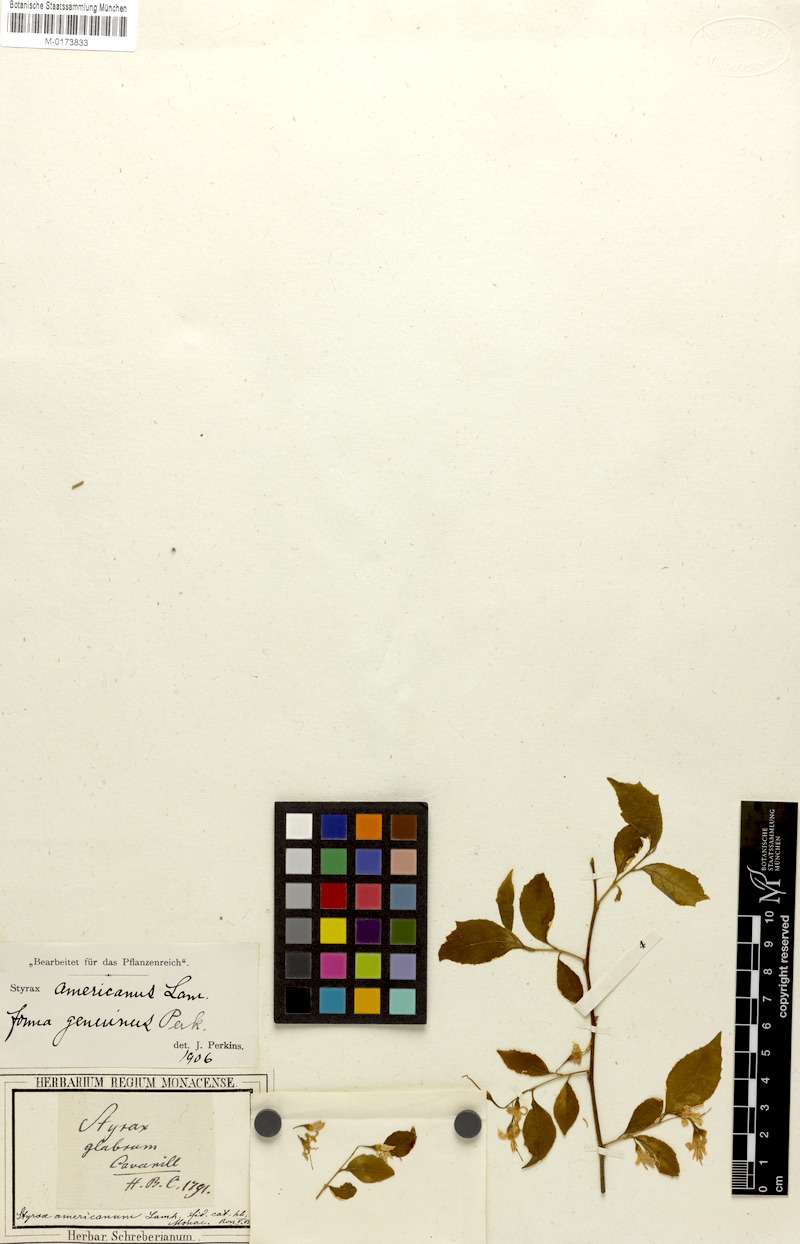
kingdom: Plantae
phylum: Tracheophyta
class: Magnoliopsida
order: Ericales
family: Styracaceae
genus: Styrax
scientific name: Styrax americanus
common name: American snowbell
